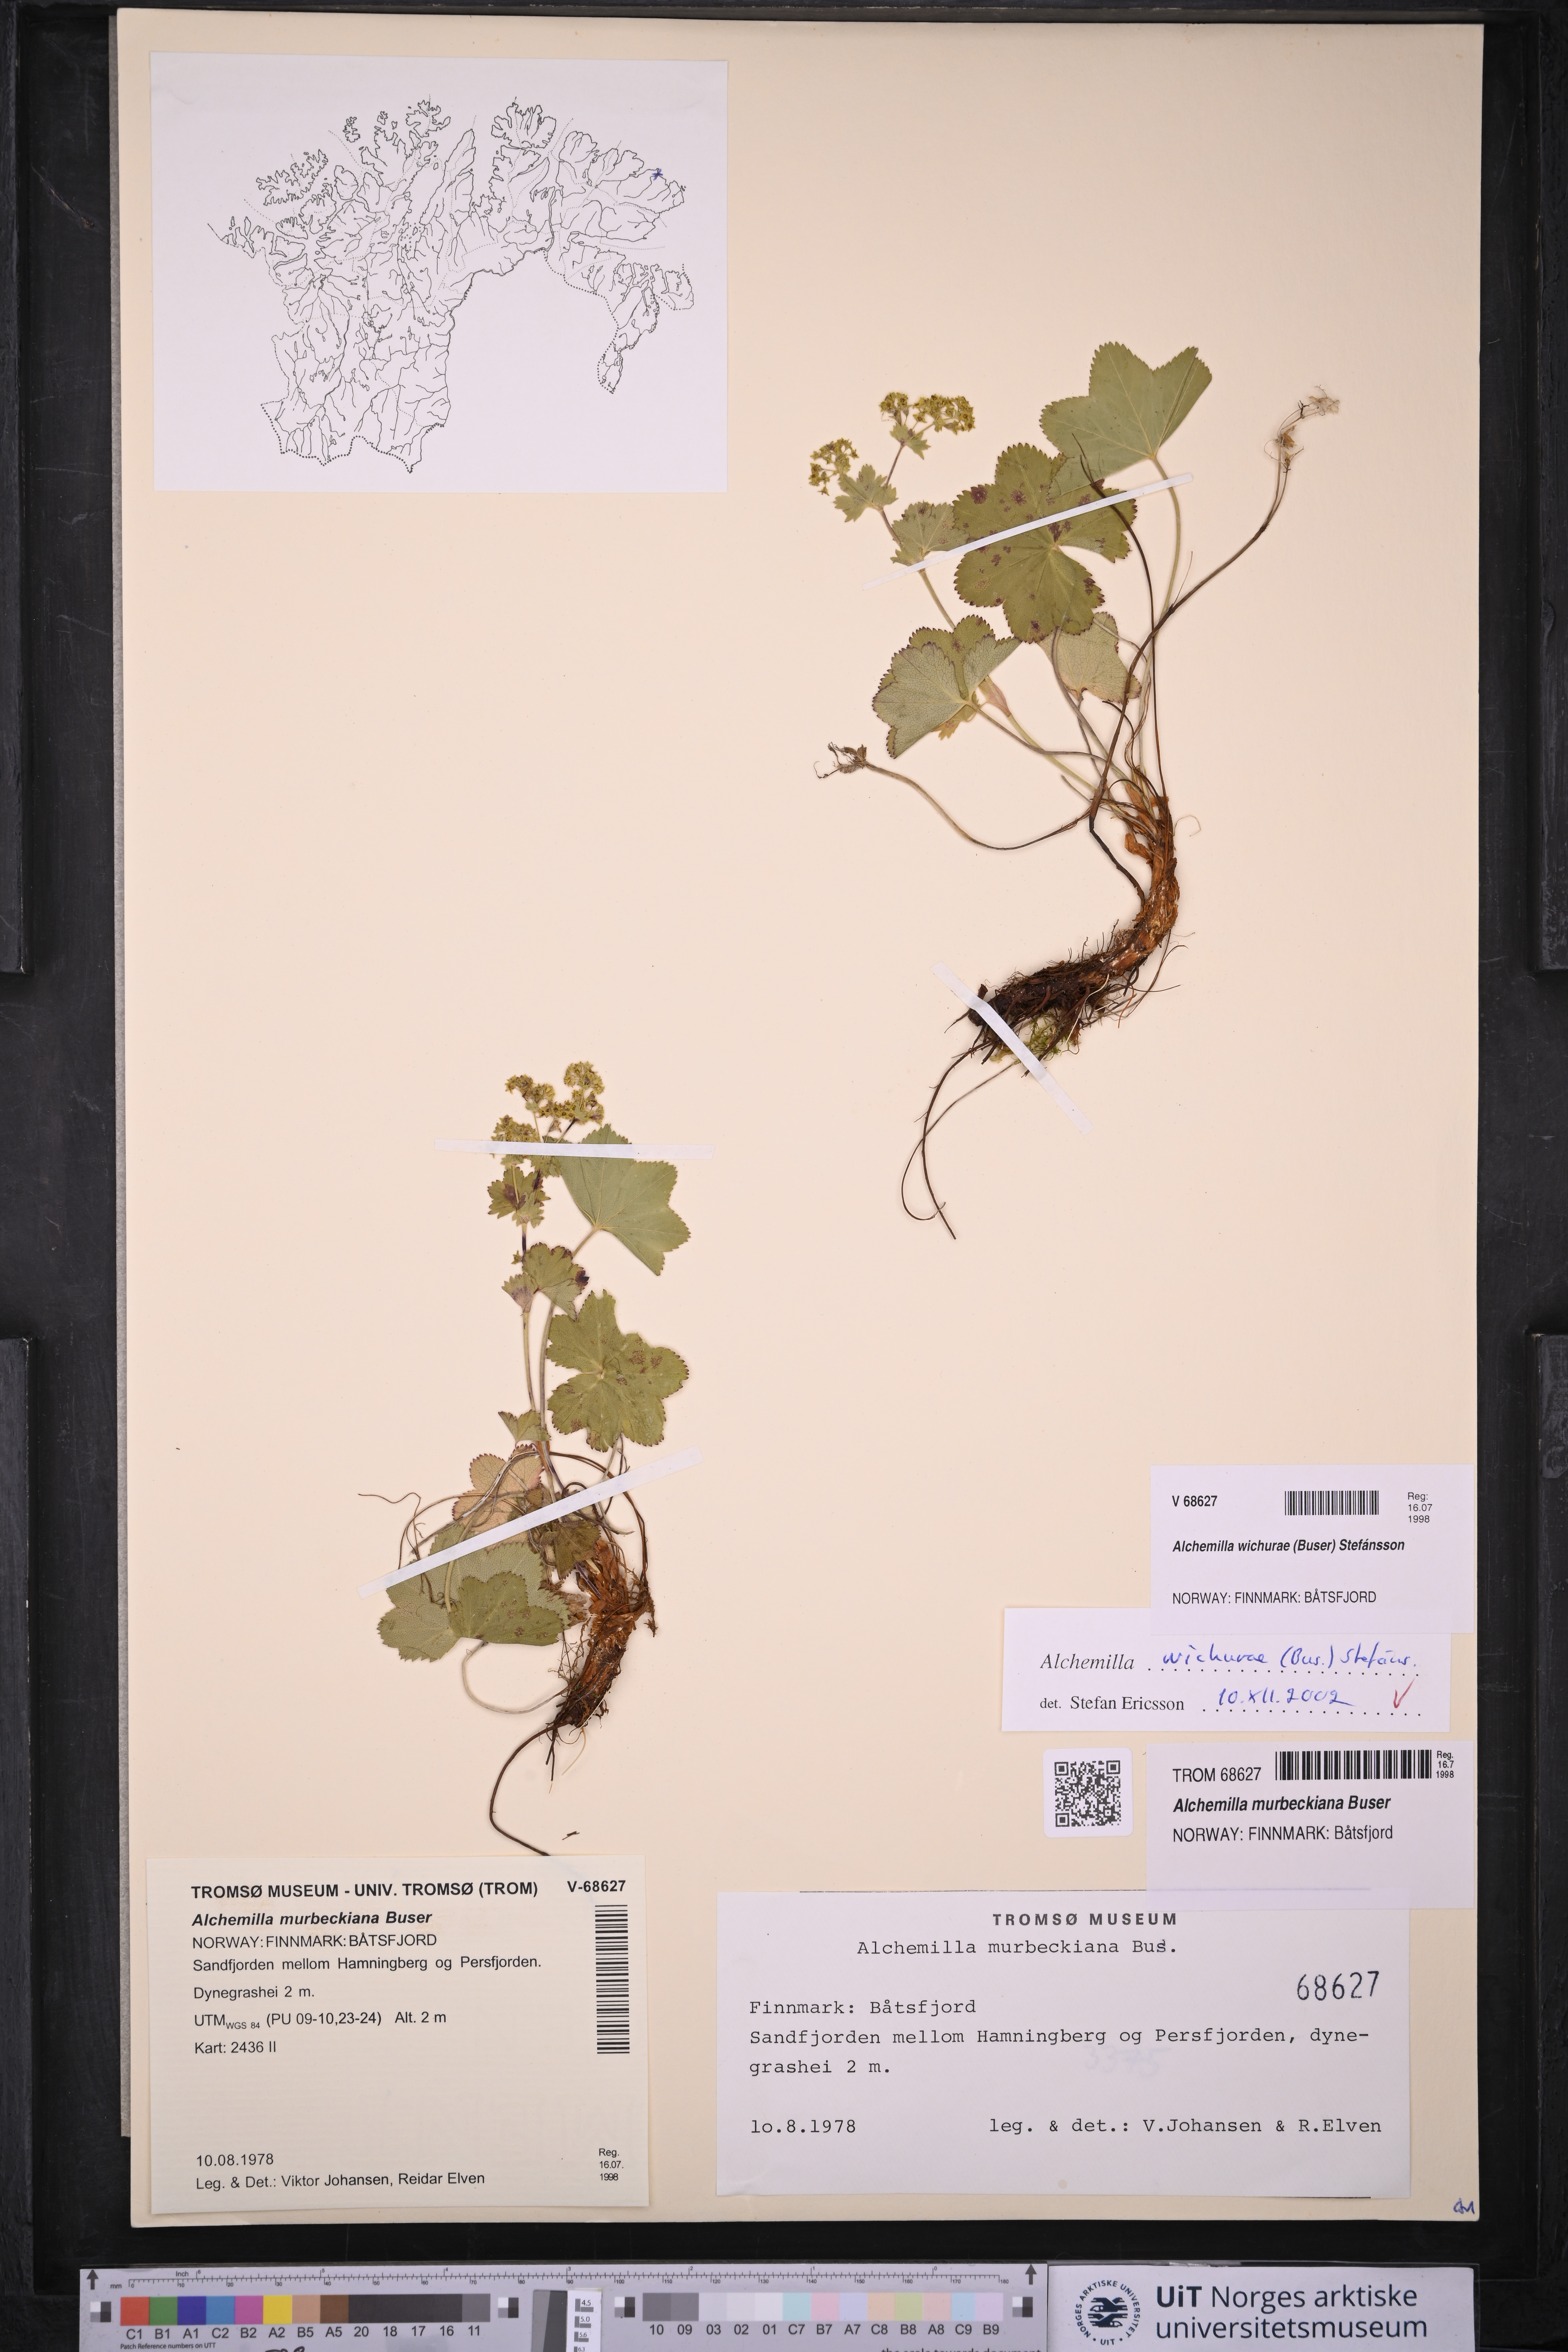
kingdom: Plantae
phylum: Tracheophyta
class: Magnoliopsida
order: Rosales
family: Rosaceae
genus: Alchemilla
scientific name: Alchemilla wichurae
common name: Rock lady's mantle
